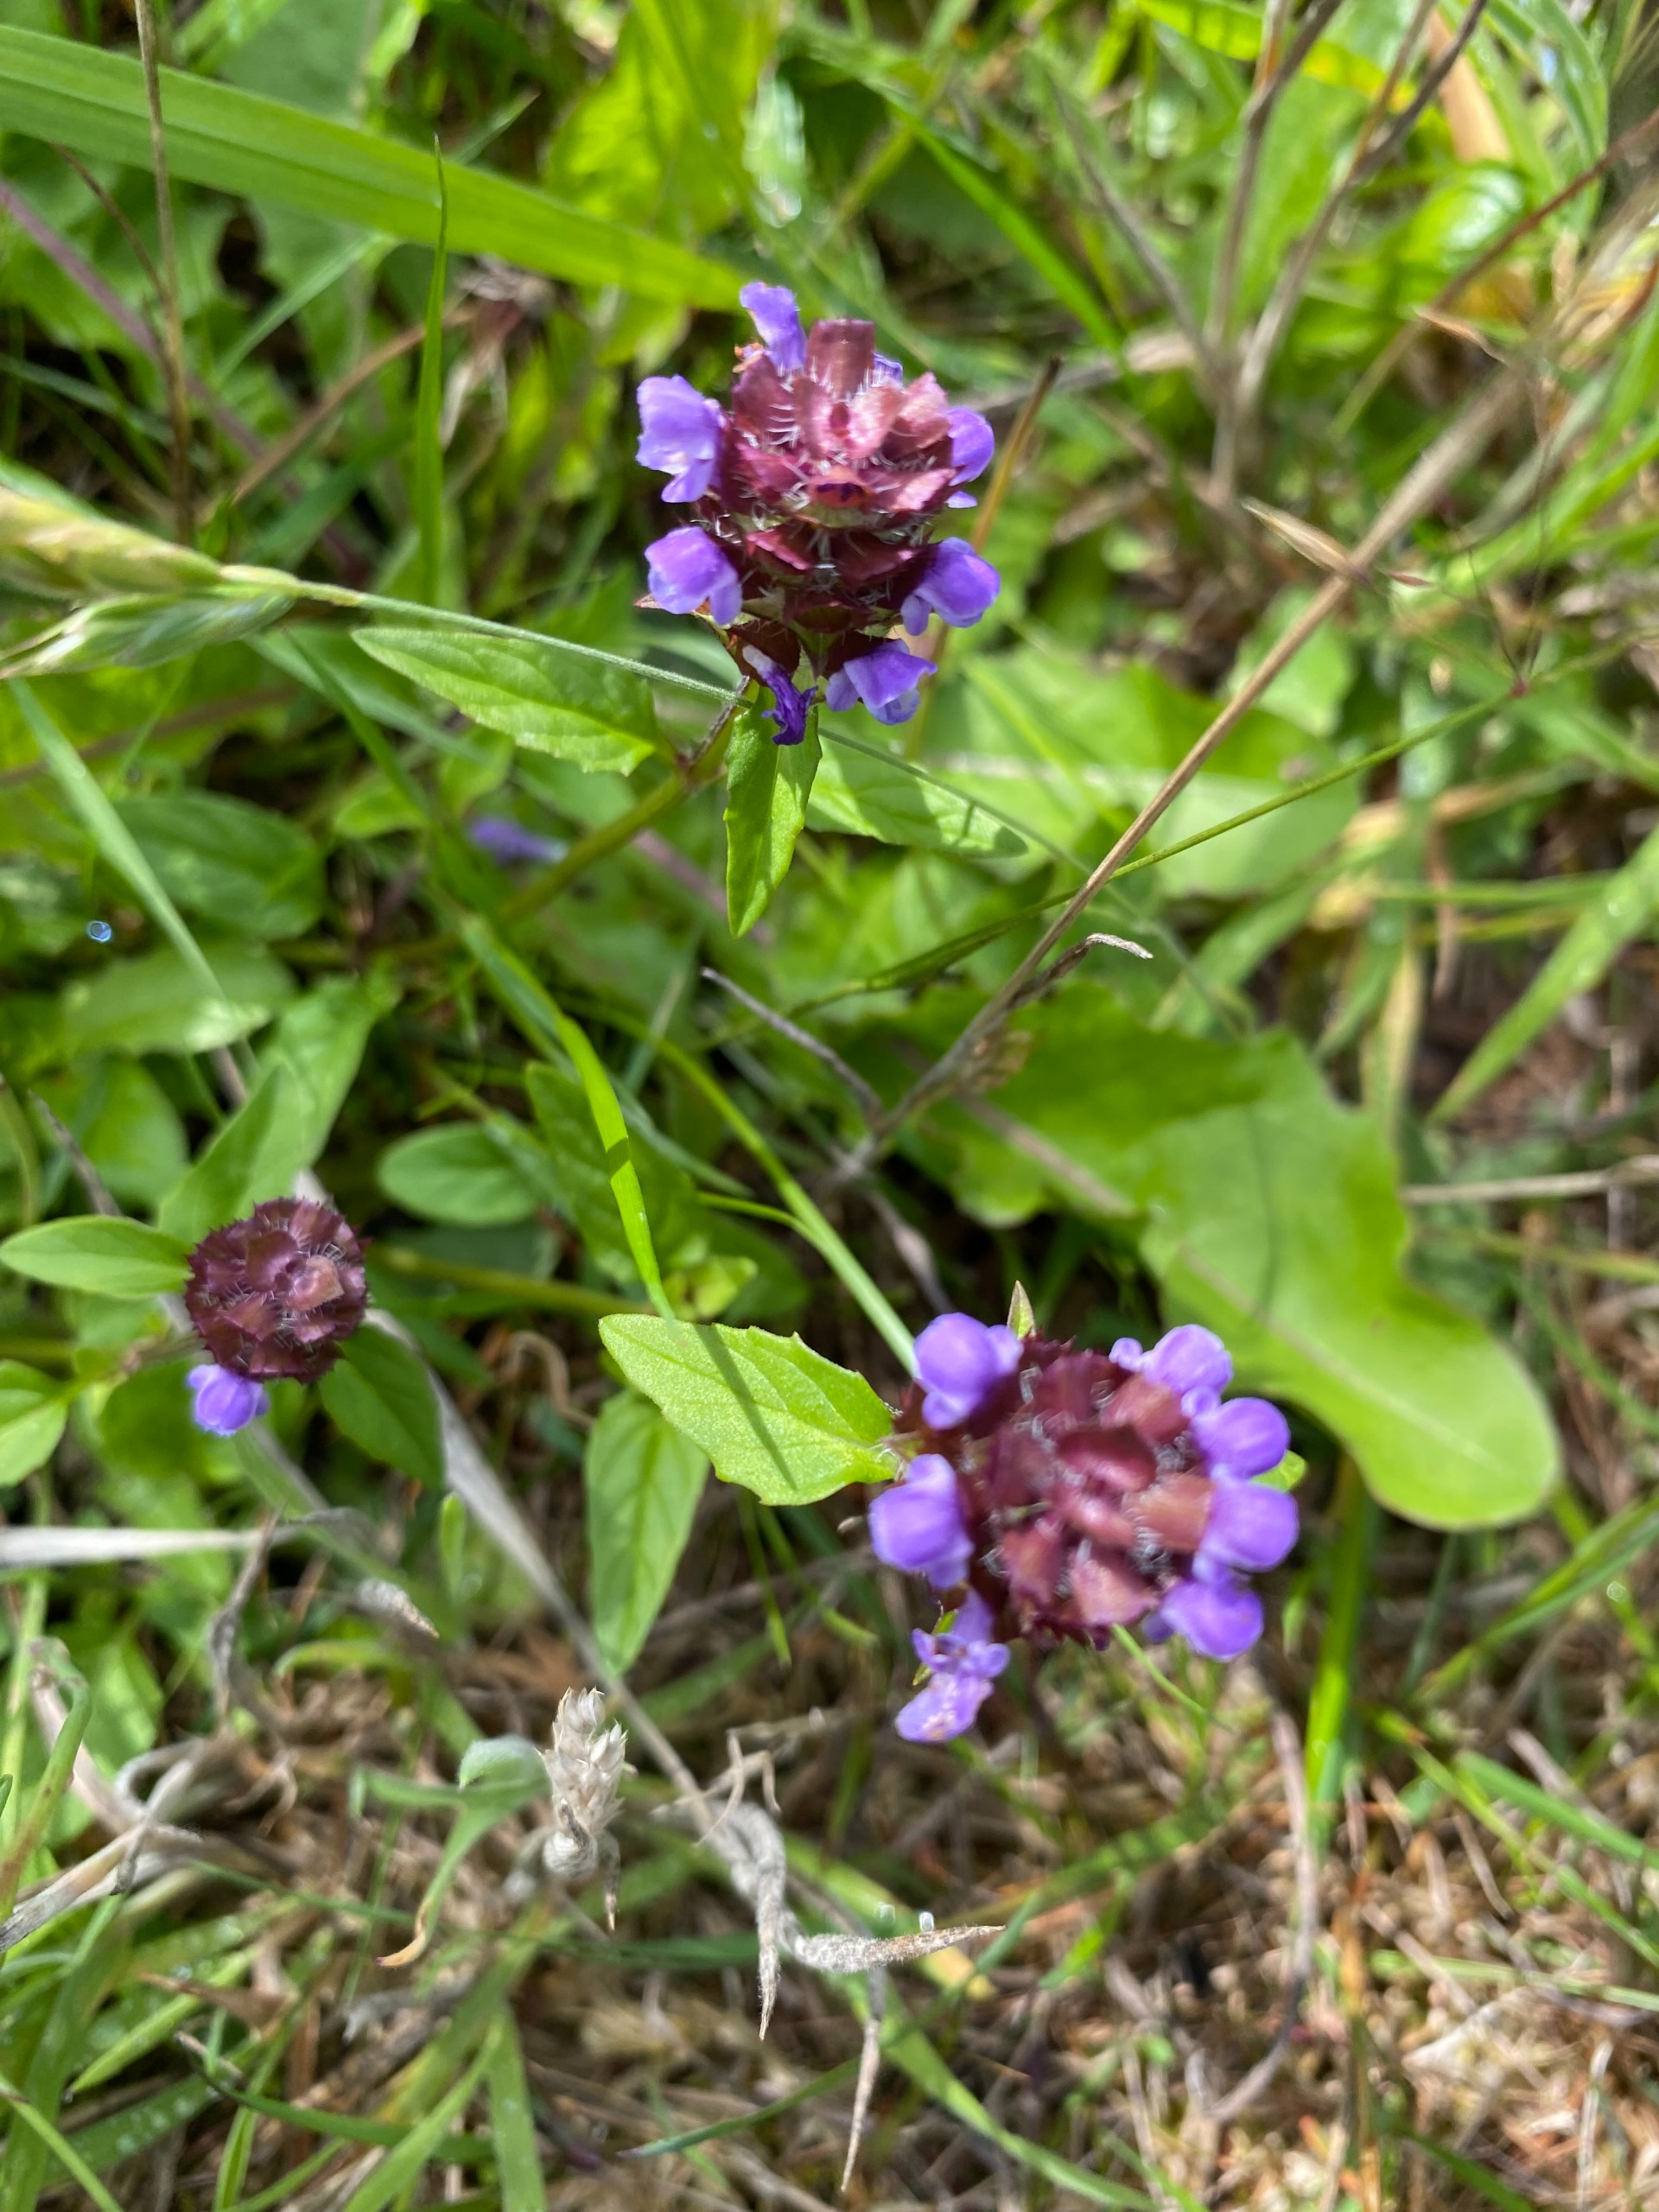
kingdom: Plantae
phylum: Tracheophyta
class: Magnoliopsida
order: Lamiales
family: Lamiaceae
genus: Prunella
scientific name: Prunella vulgaris
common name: Almindelig brunelle
